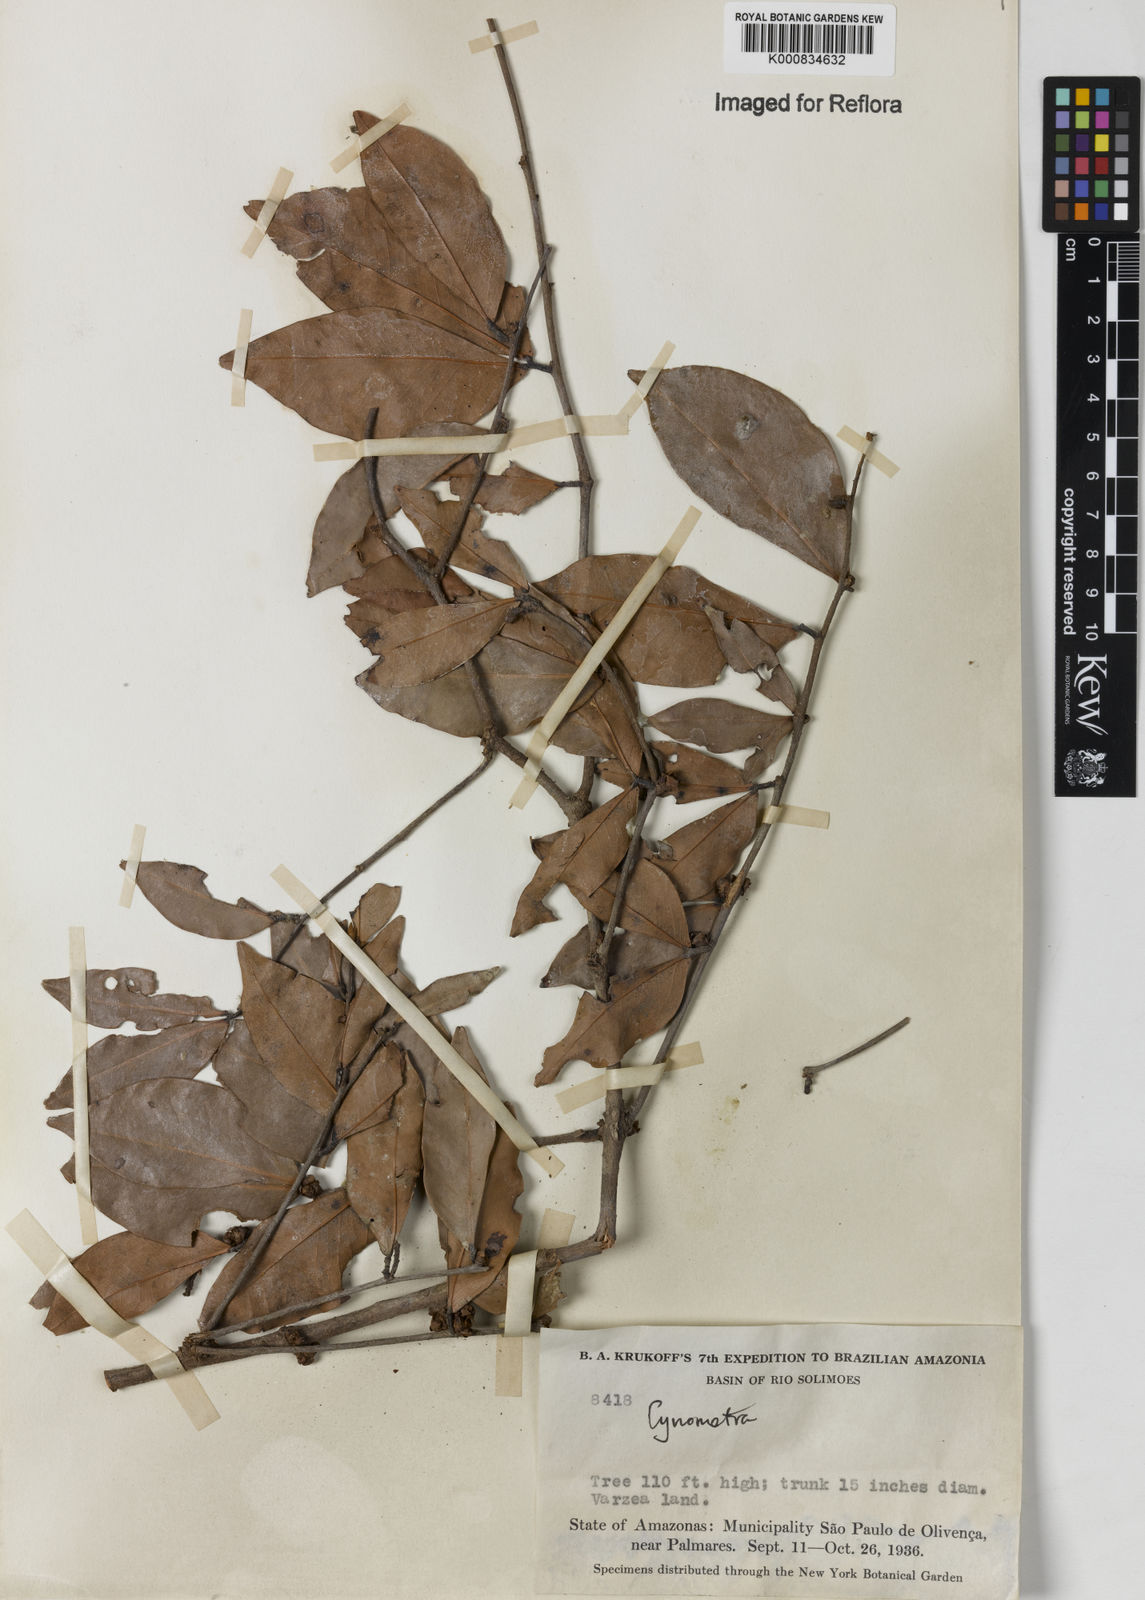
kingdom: Plantae
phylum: Tracheophyta
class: Magnoliopsida
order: Fabales
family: Fabaceae
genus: Cynometra
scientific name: Cynometra
